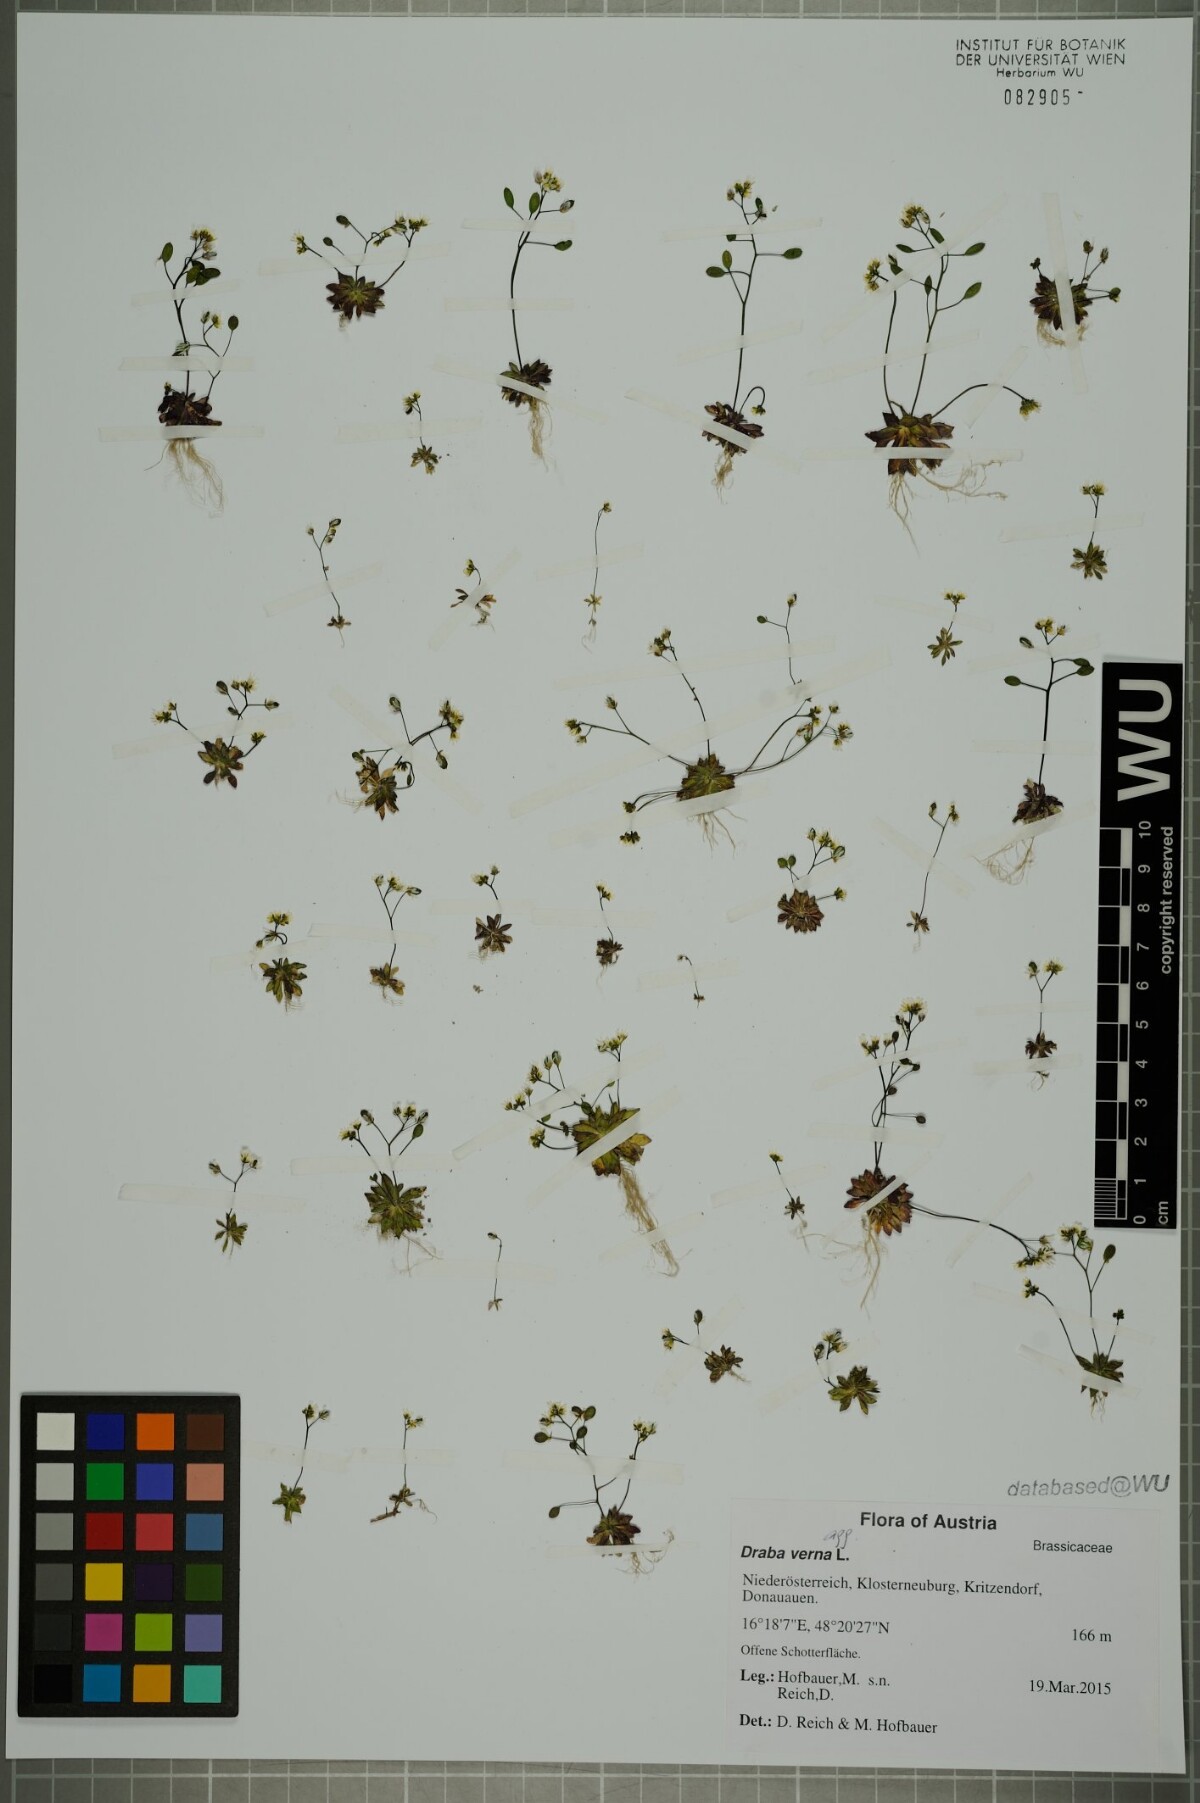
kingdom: Plantae
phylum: Tracheophyta
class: Magnoliopsida
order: Brassicales
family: Brassicaceae
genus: Draba
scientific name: Draba verna
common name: Spring draba
